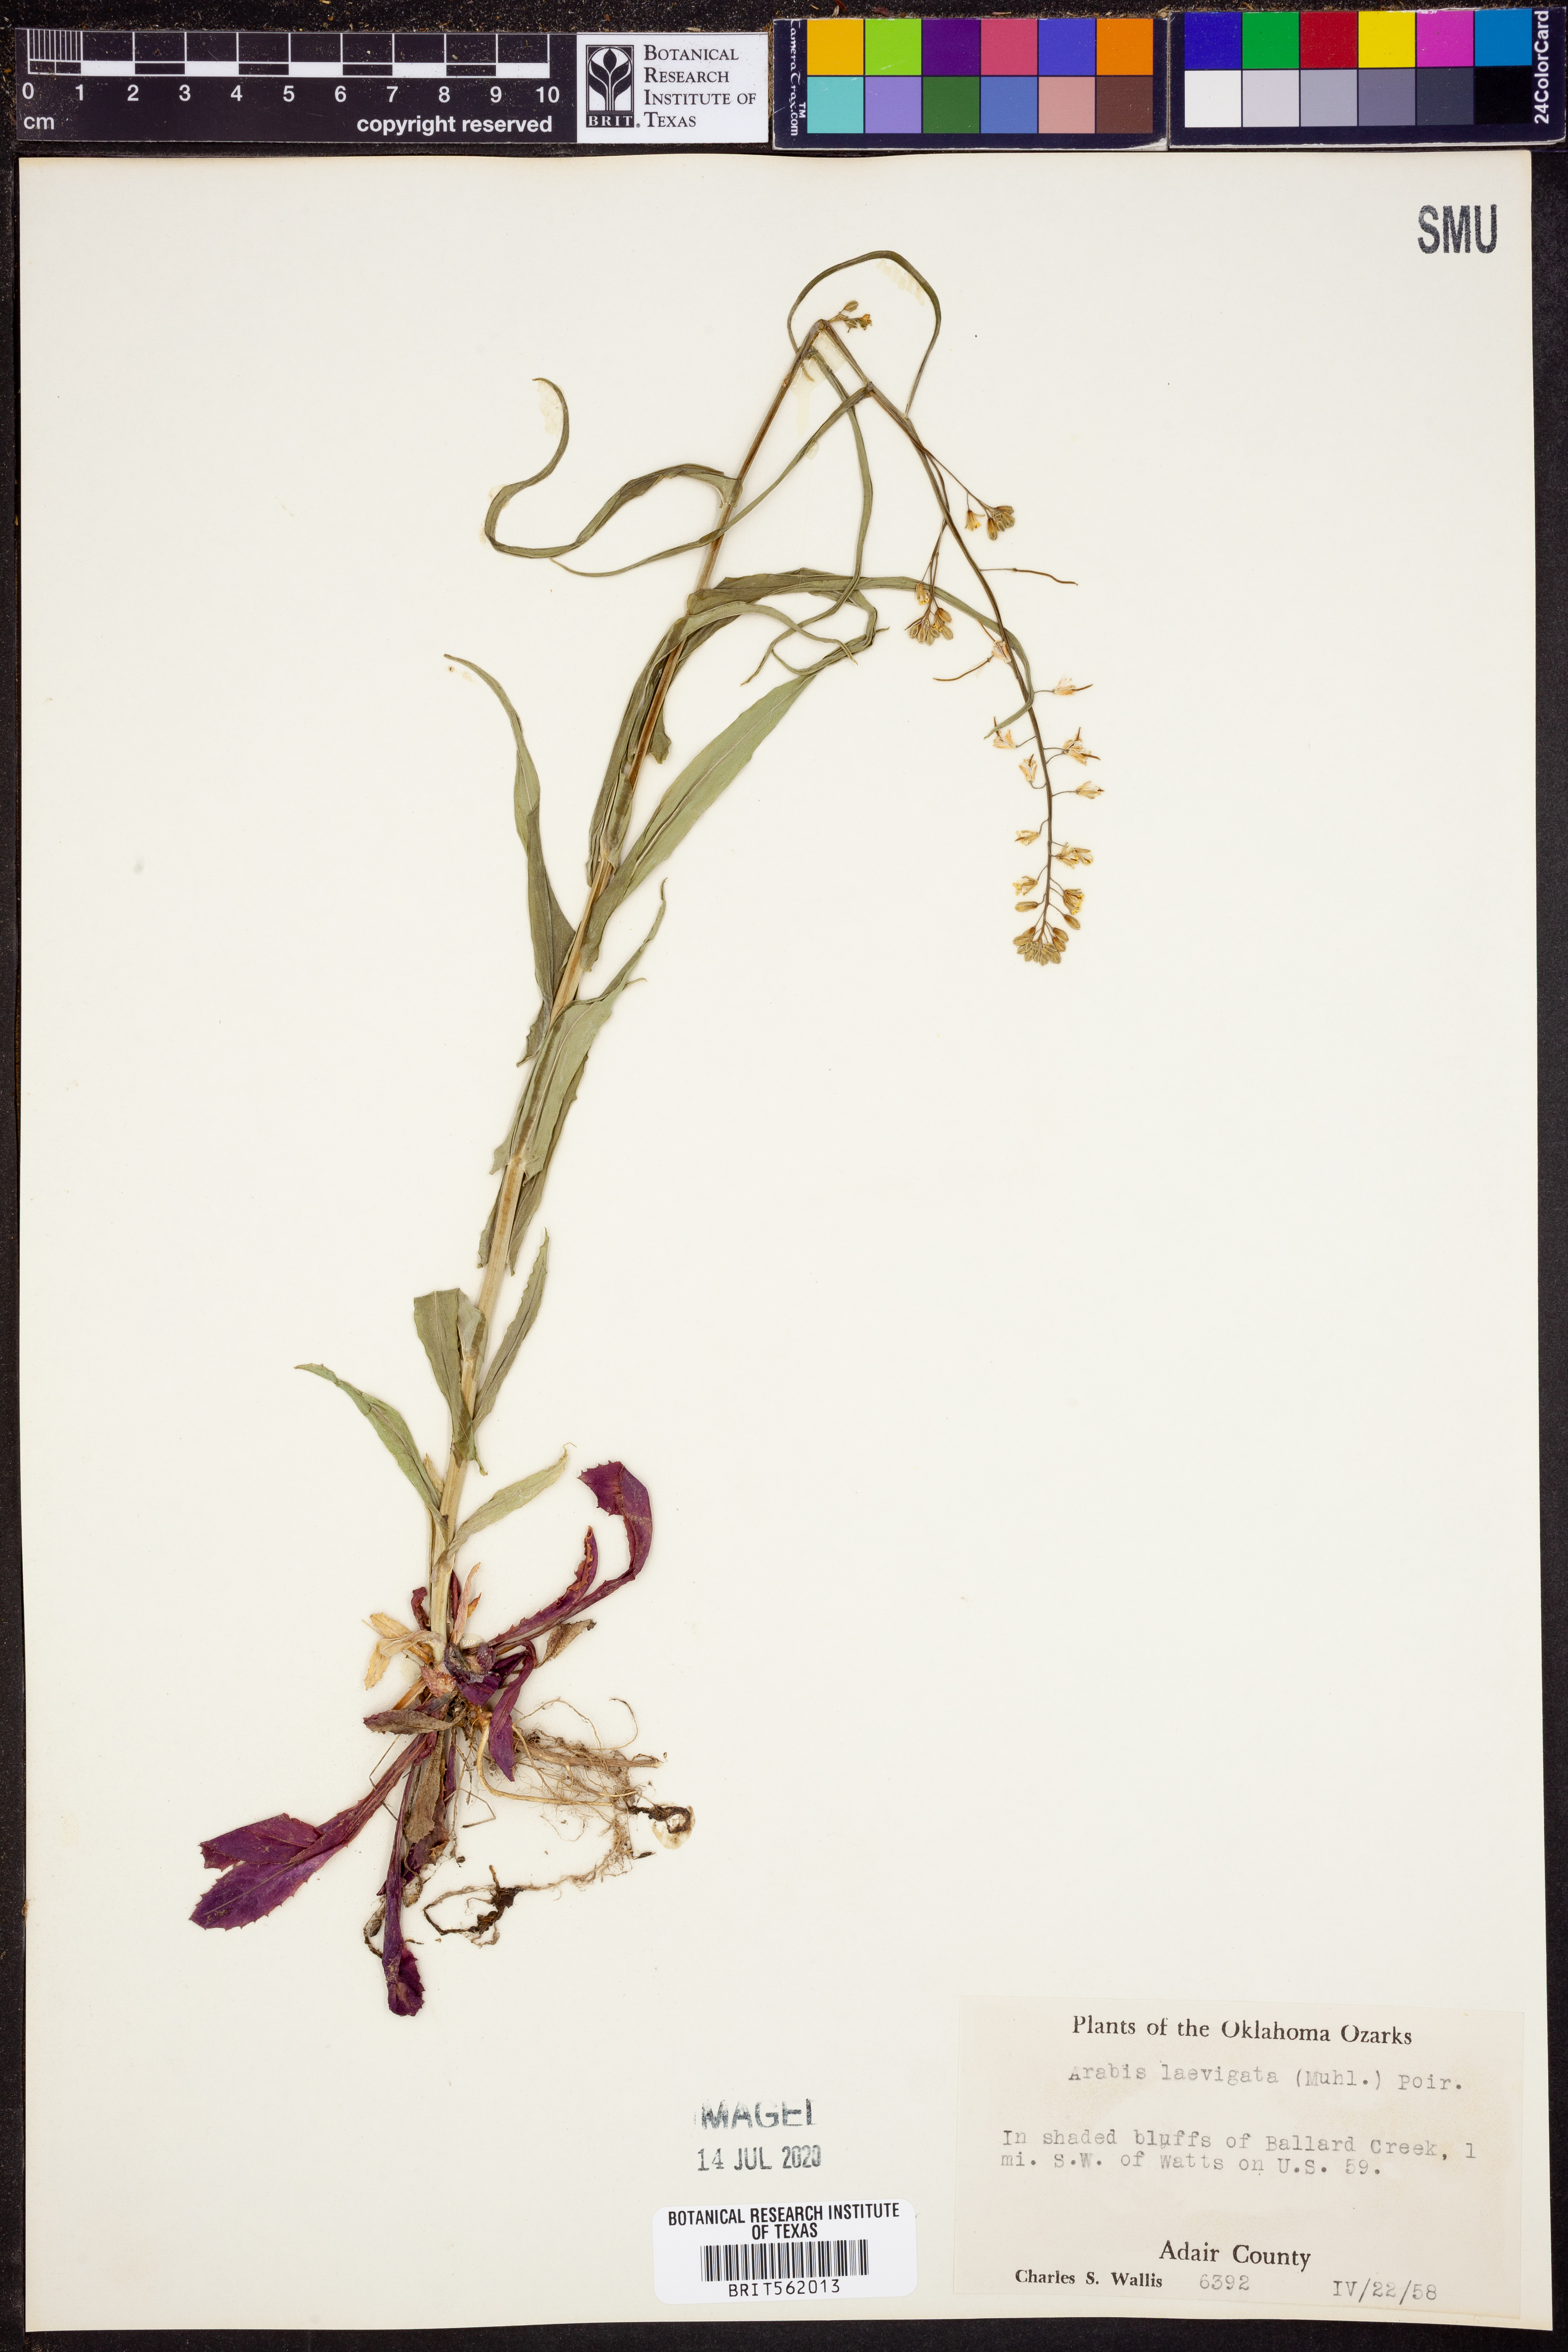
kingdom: Plantae
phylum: Tracheophyta
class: Magnoliopsida
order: Brassicales
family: Brassicaceae
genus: Arabis
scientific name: Arabis laevigata
